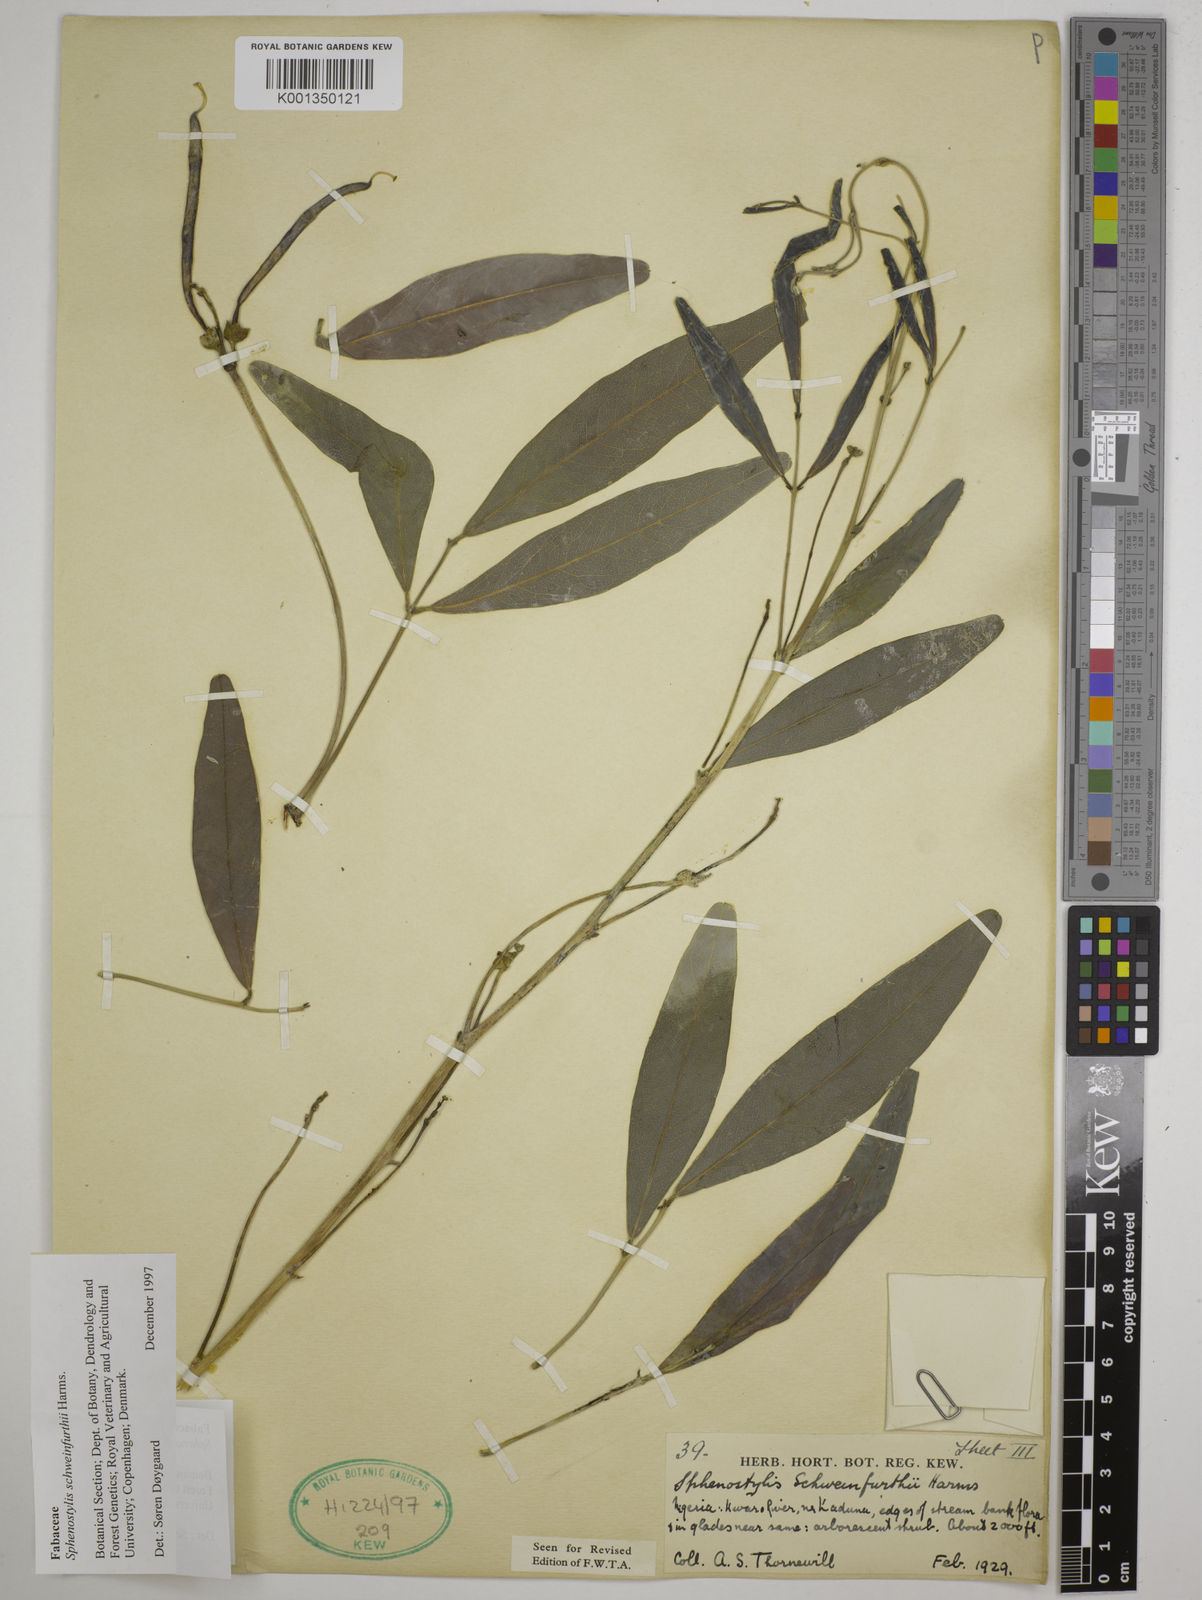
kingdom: Plantae
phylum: Tracheophyta
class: Magnoliopsida
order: Fabales
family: Fabaceae
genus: Sphenostylis
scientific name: Sphenostylis schweinfurthii
